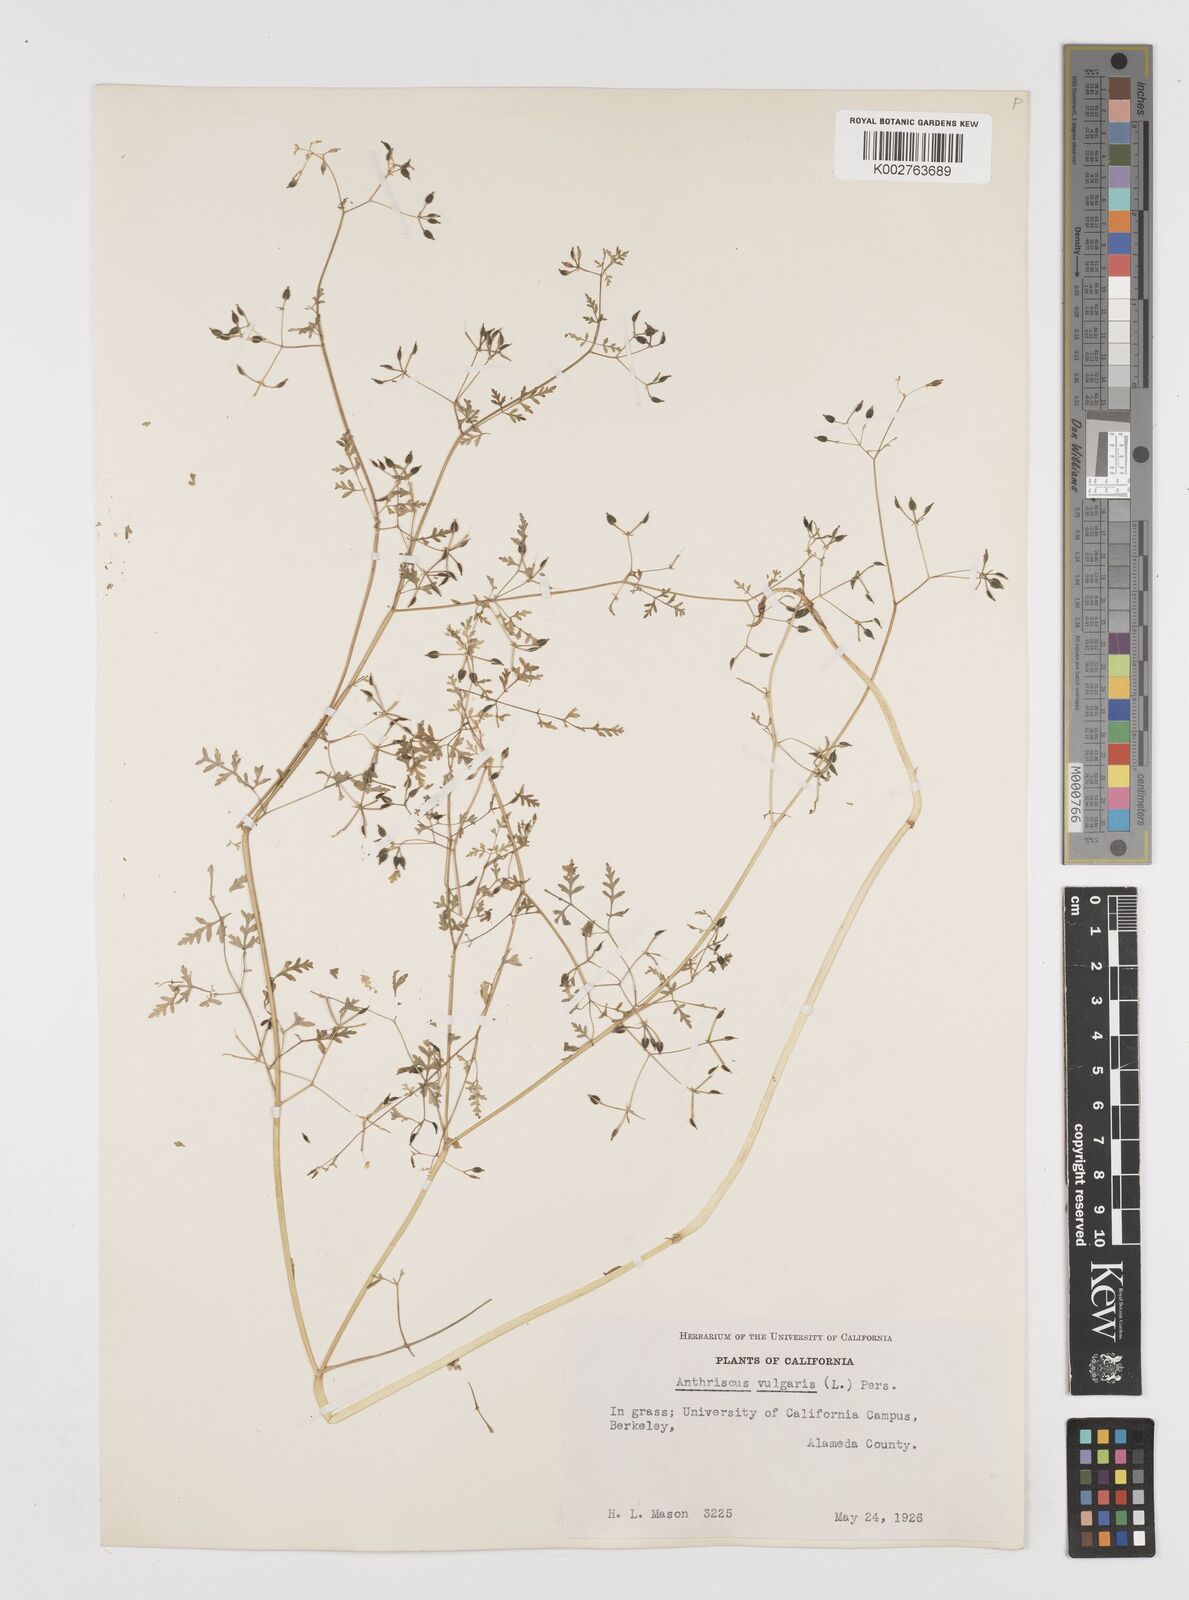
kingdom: Plantae
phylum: Tracheophyta
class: Magnoliopsida
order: Apiales
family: Apiaceae
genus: Anthriscus
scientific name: Anthriscus caucalis
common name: Bur chervil
